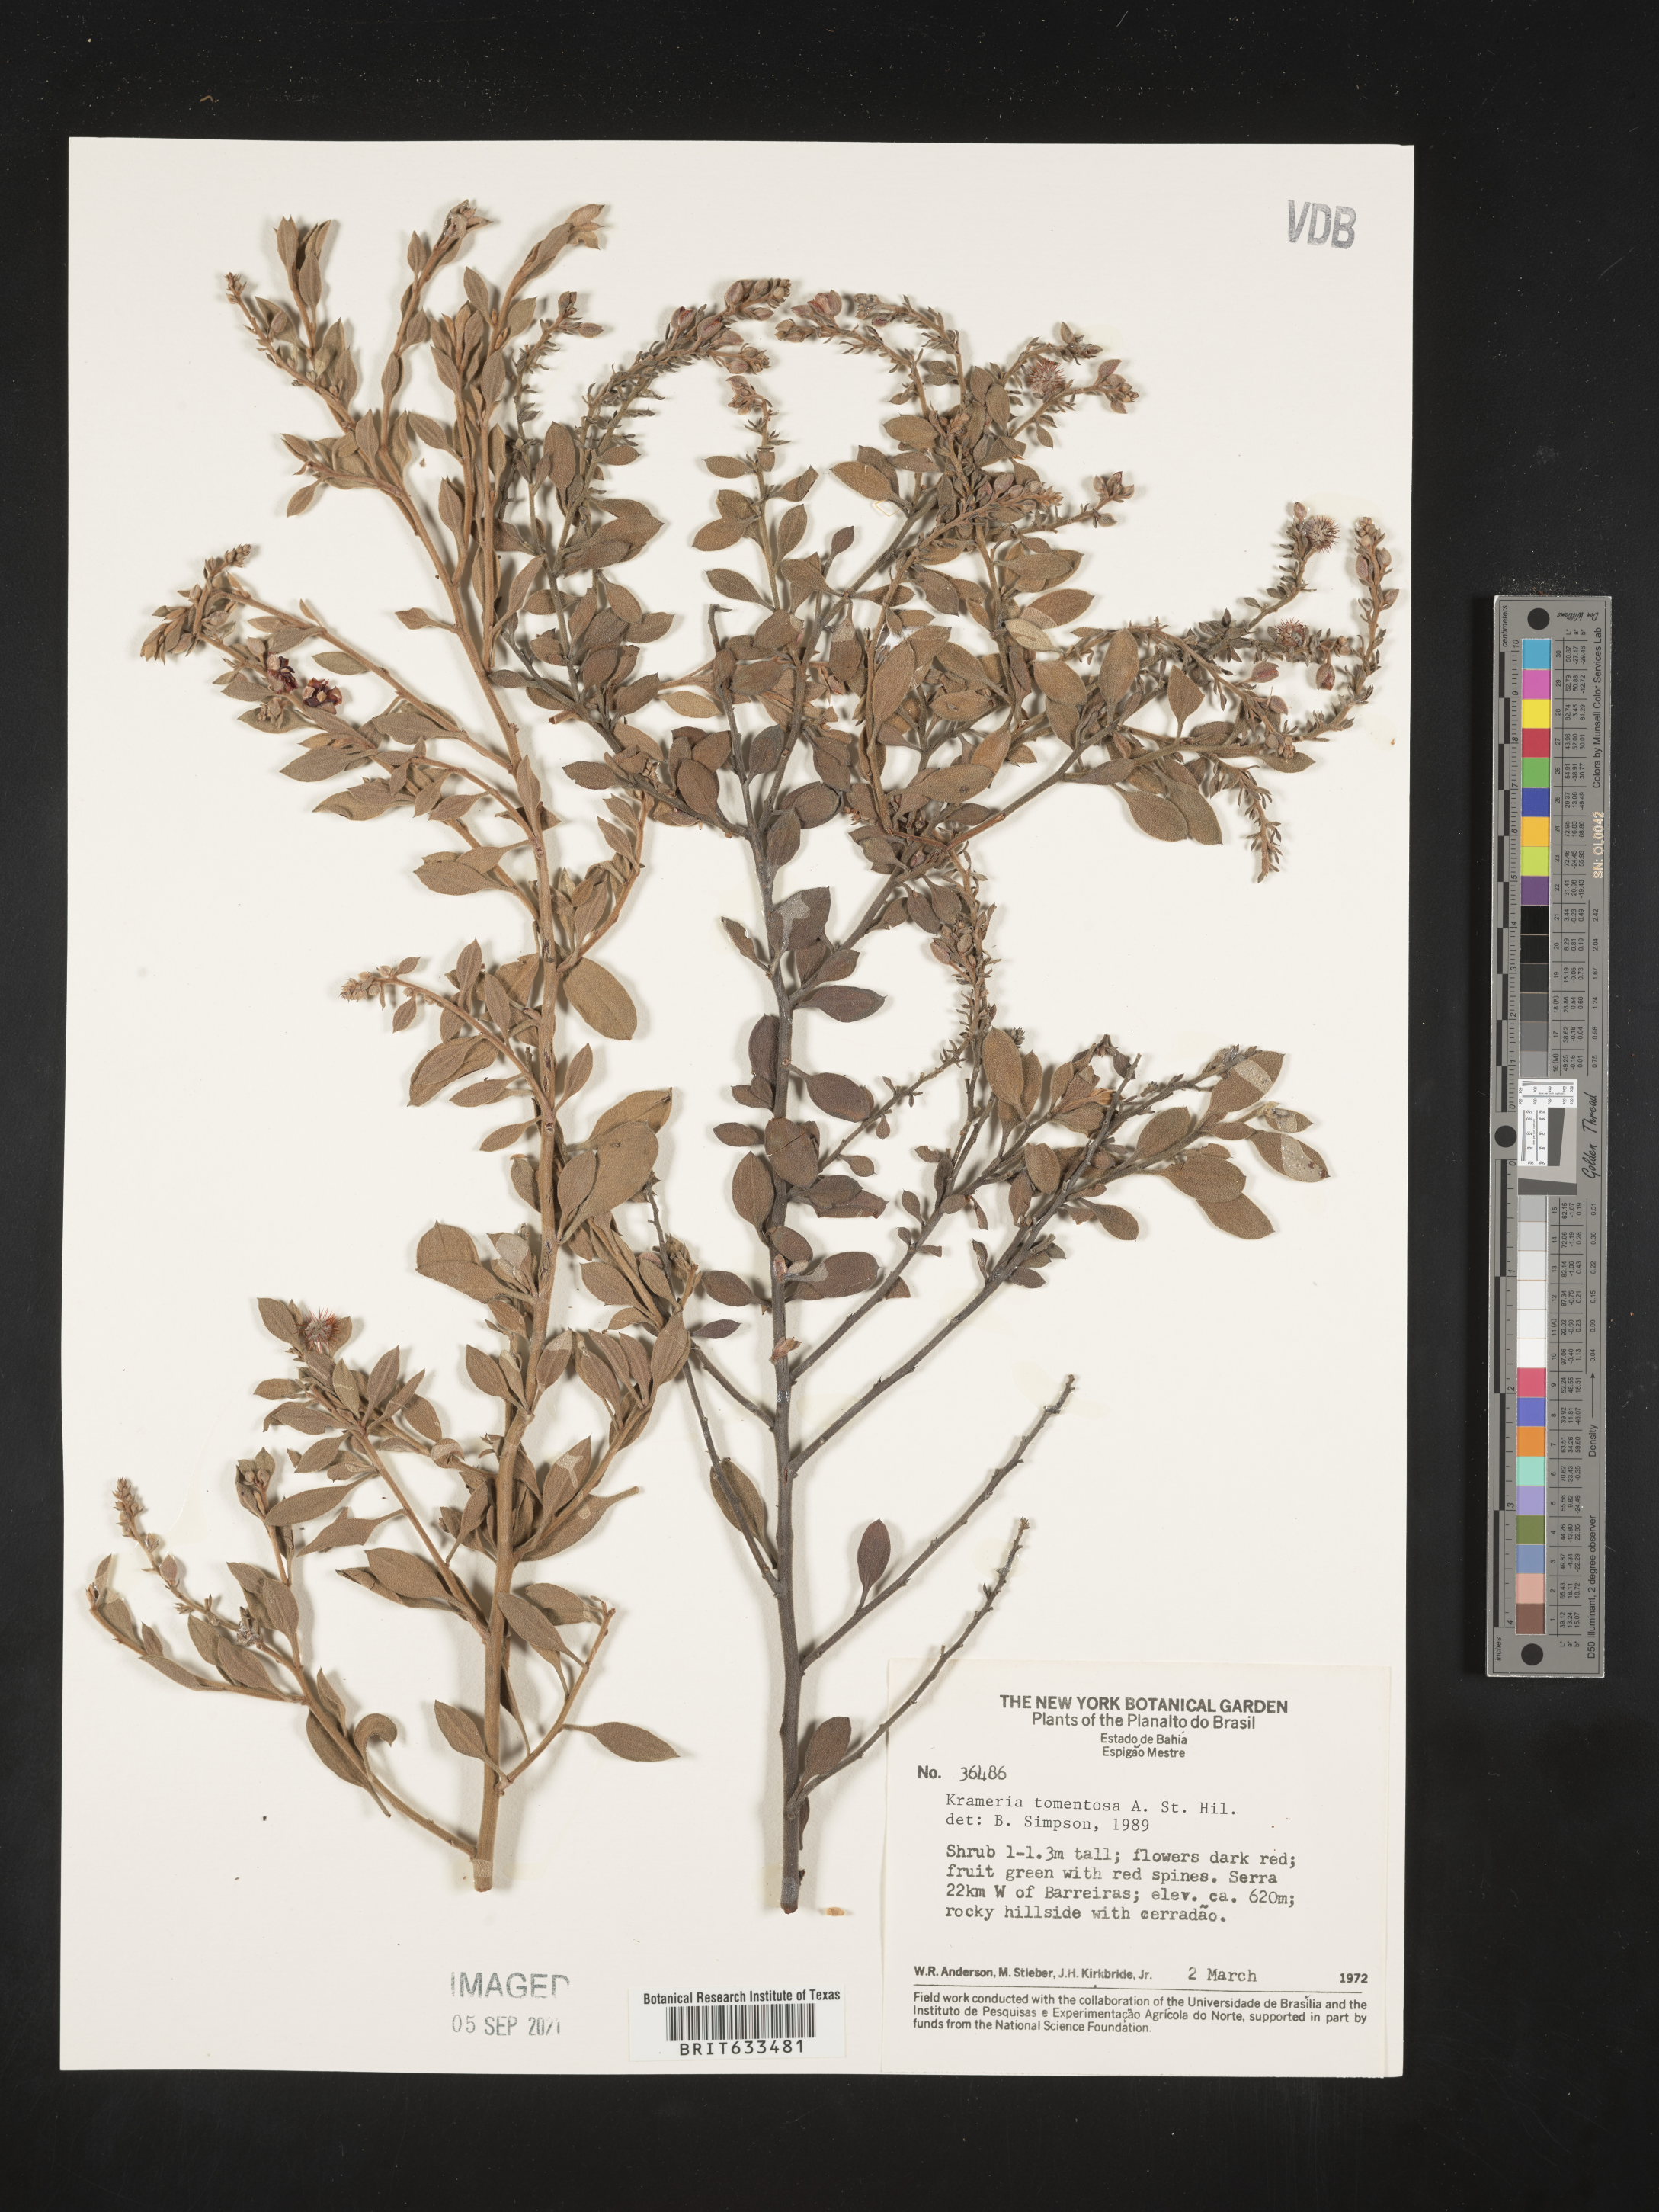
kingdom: Plantae
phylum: Tracheophyta
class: Magnoliopsida
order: Zygophyllales
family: Krameriaceae
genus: Krameria
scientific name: Krameria
